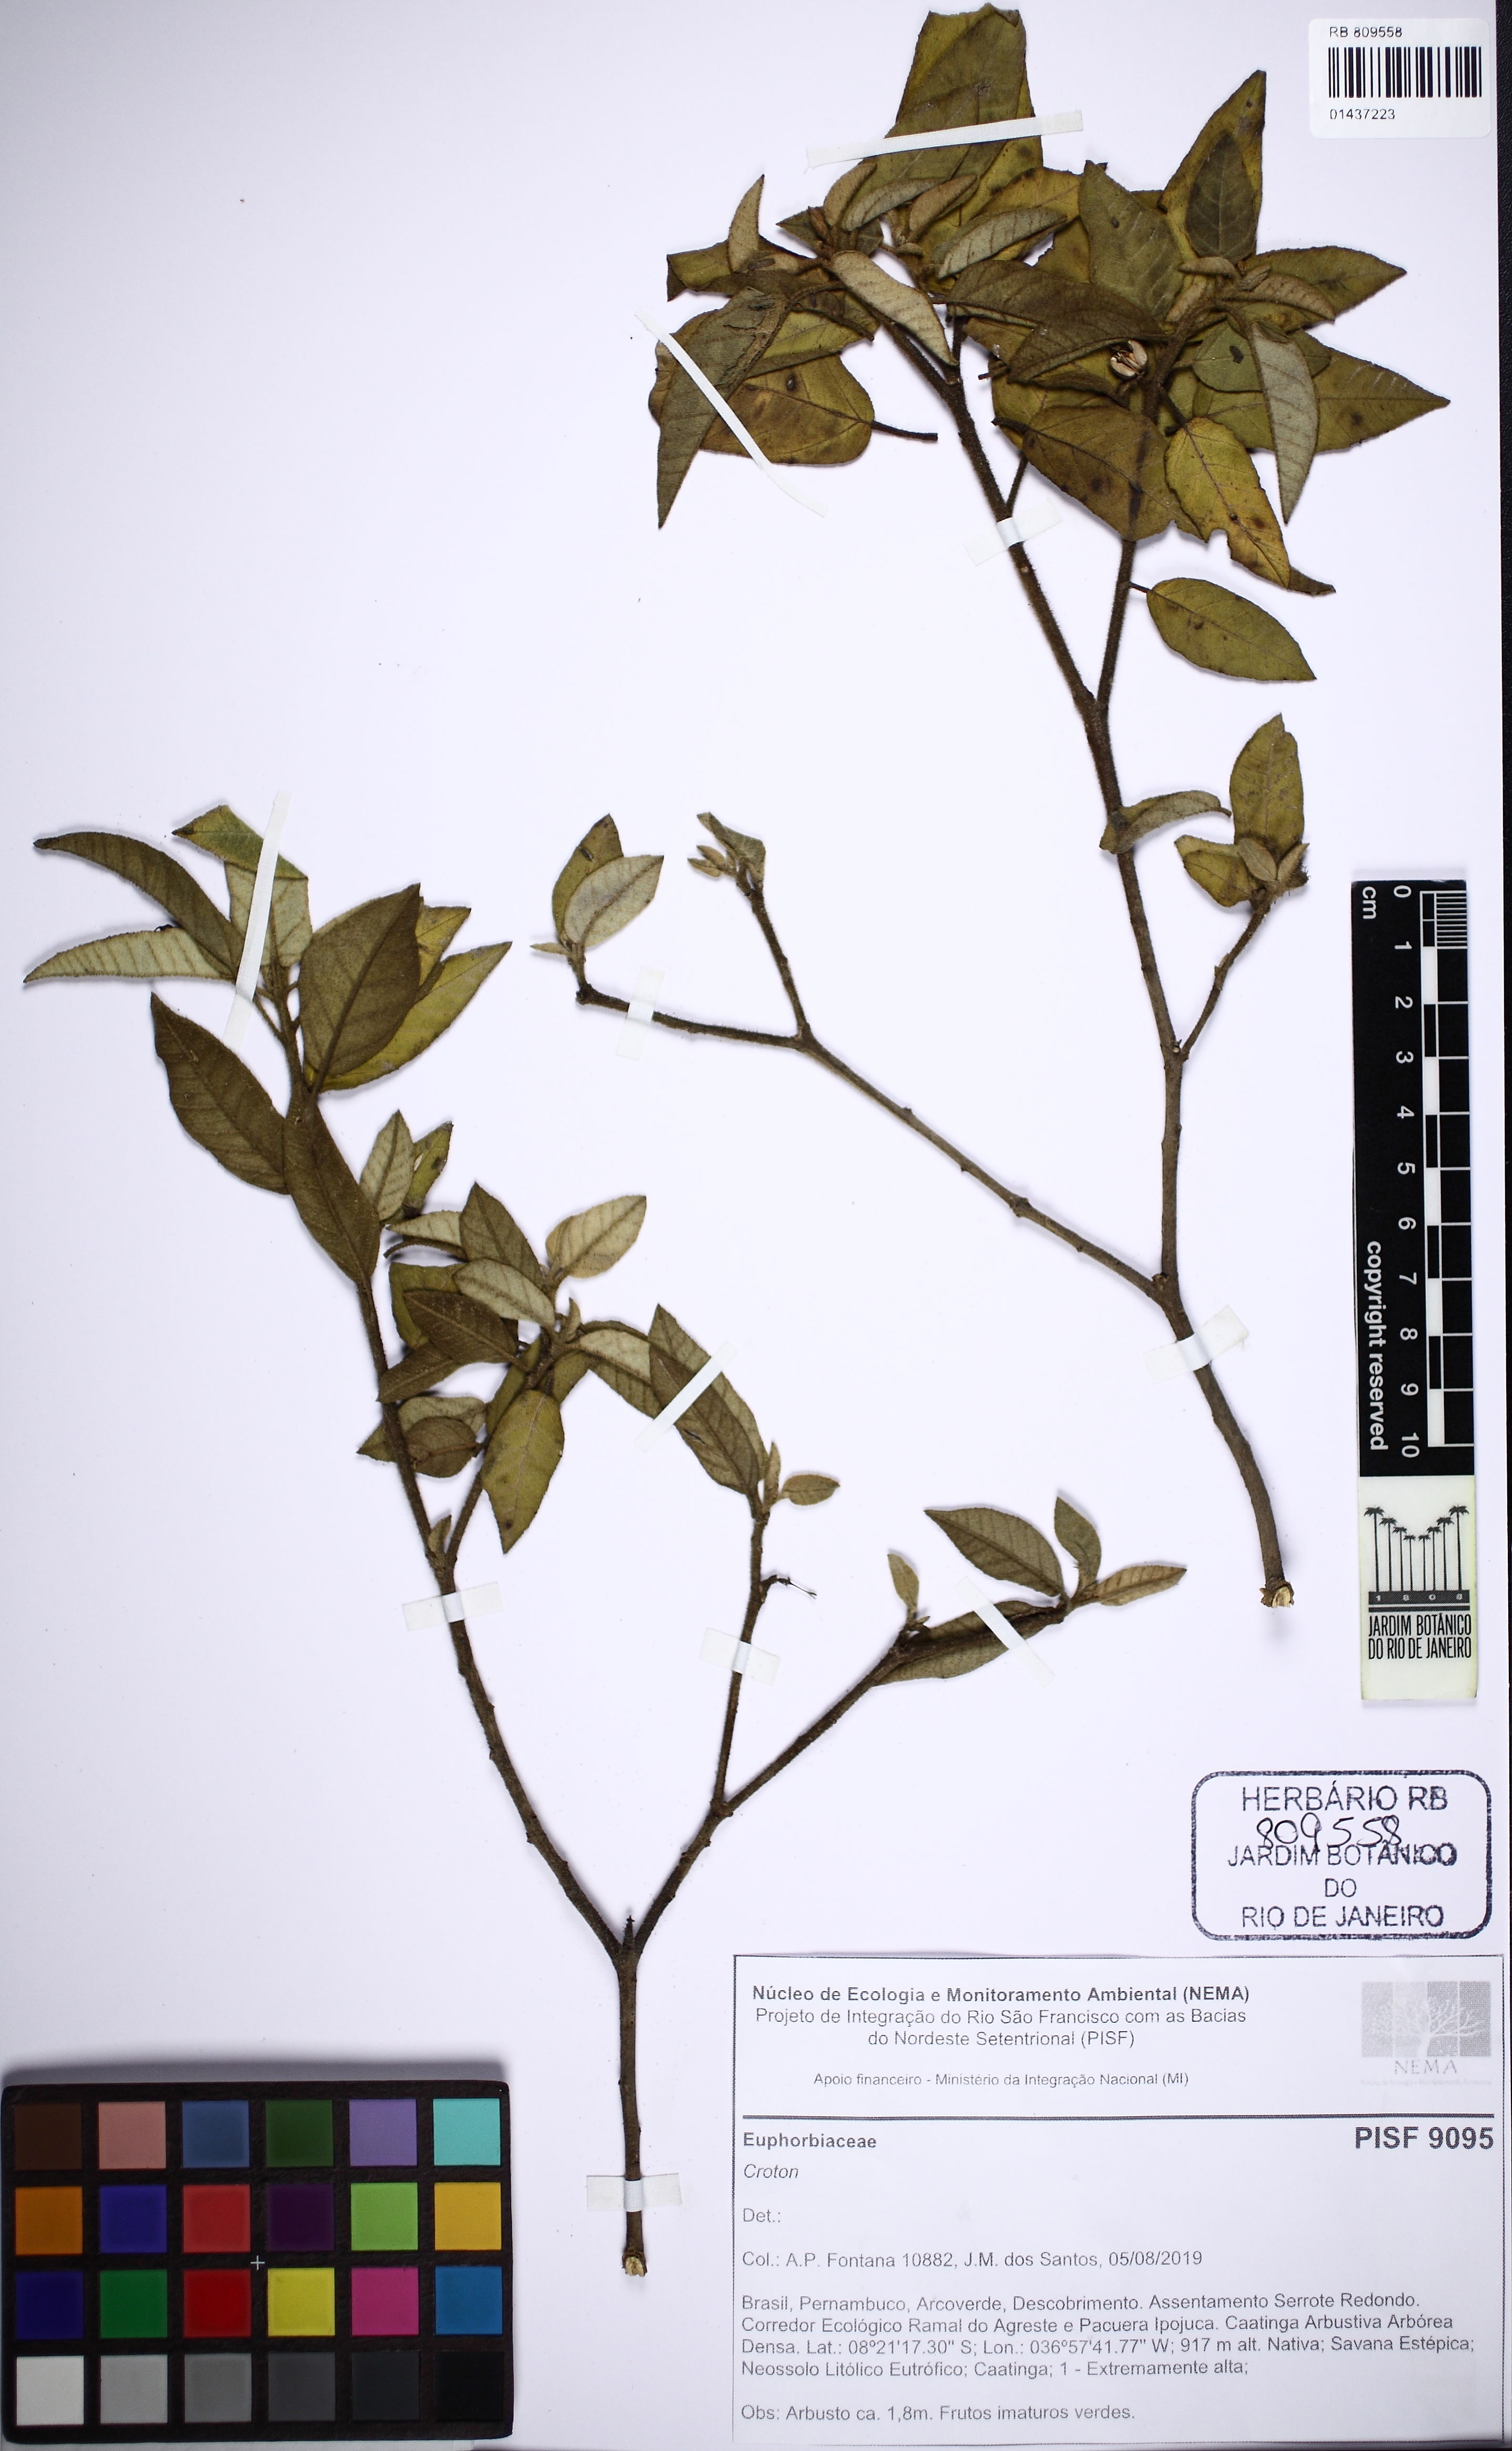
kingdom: Plantae
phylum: Tracheophyta
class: Magnoliopsida
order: Malpighiales
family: Euphorbiaceae
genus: Acalypha
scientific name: Acalypha
